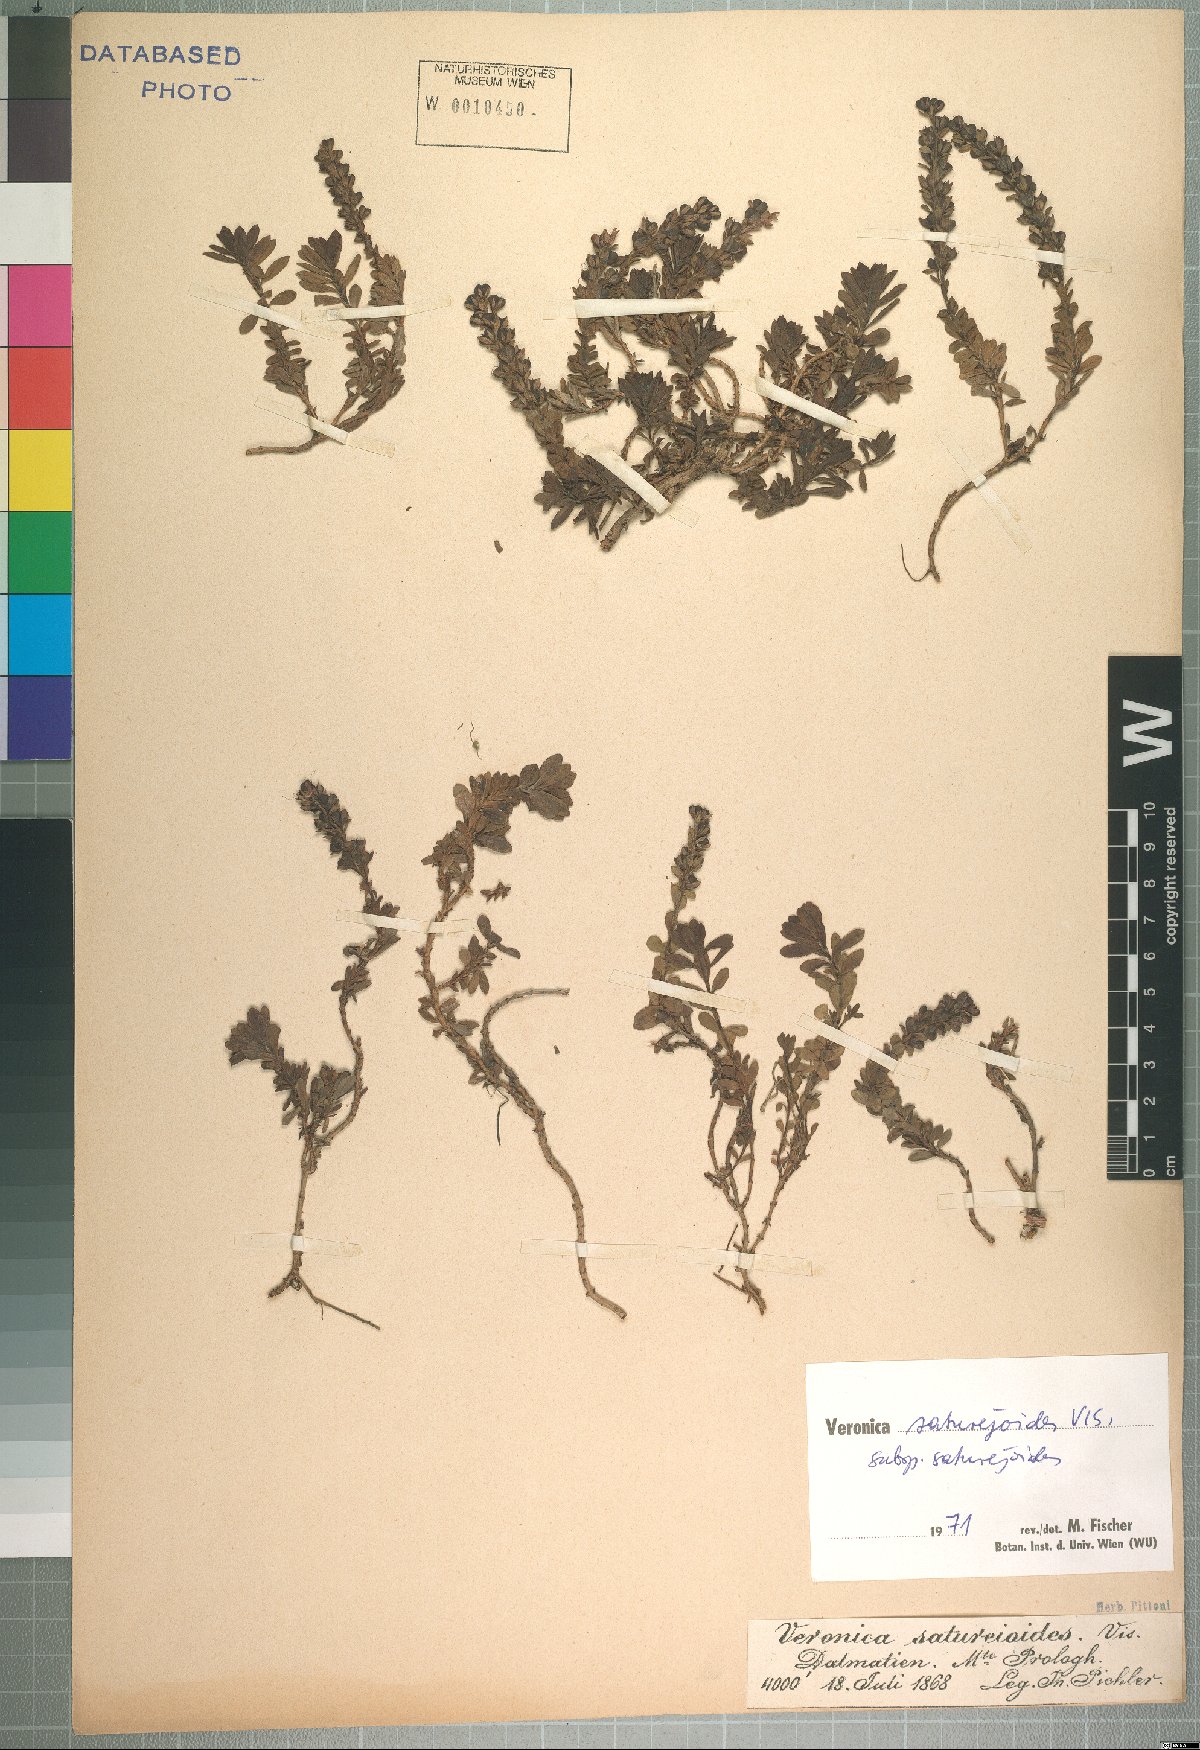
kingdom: Plantae
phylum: Tracheophyta
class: Magnoliopsida
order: Lamiales
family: Plantaginaceae
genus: Veronica
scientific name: Veronica saturejoides
